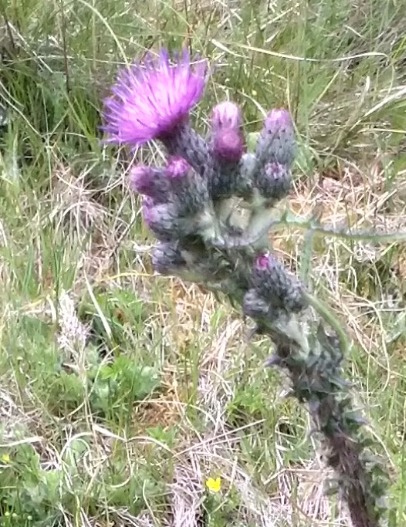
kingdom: Plantae
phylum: Tracheophyta
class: Magnoliopsida
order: Asterales
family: Asteraceae
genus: Cirsium
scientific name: Cirsium palustre
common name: Kær-tidsel
